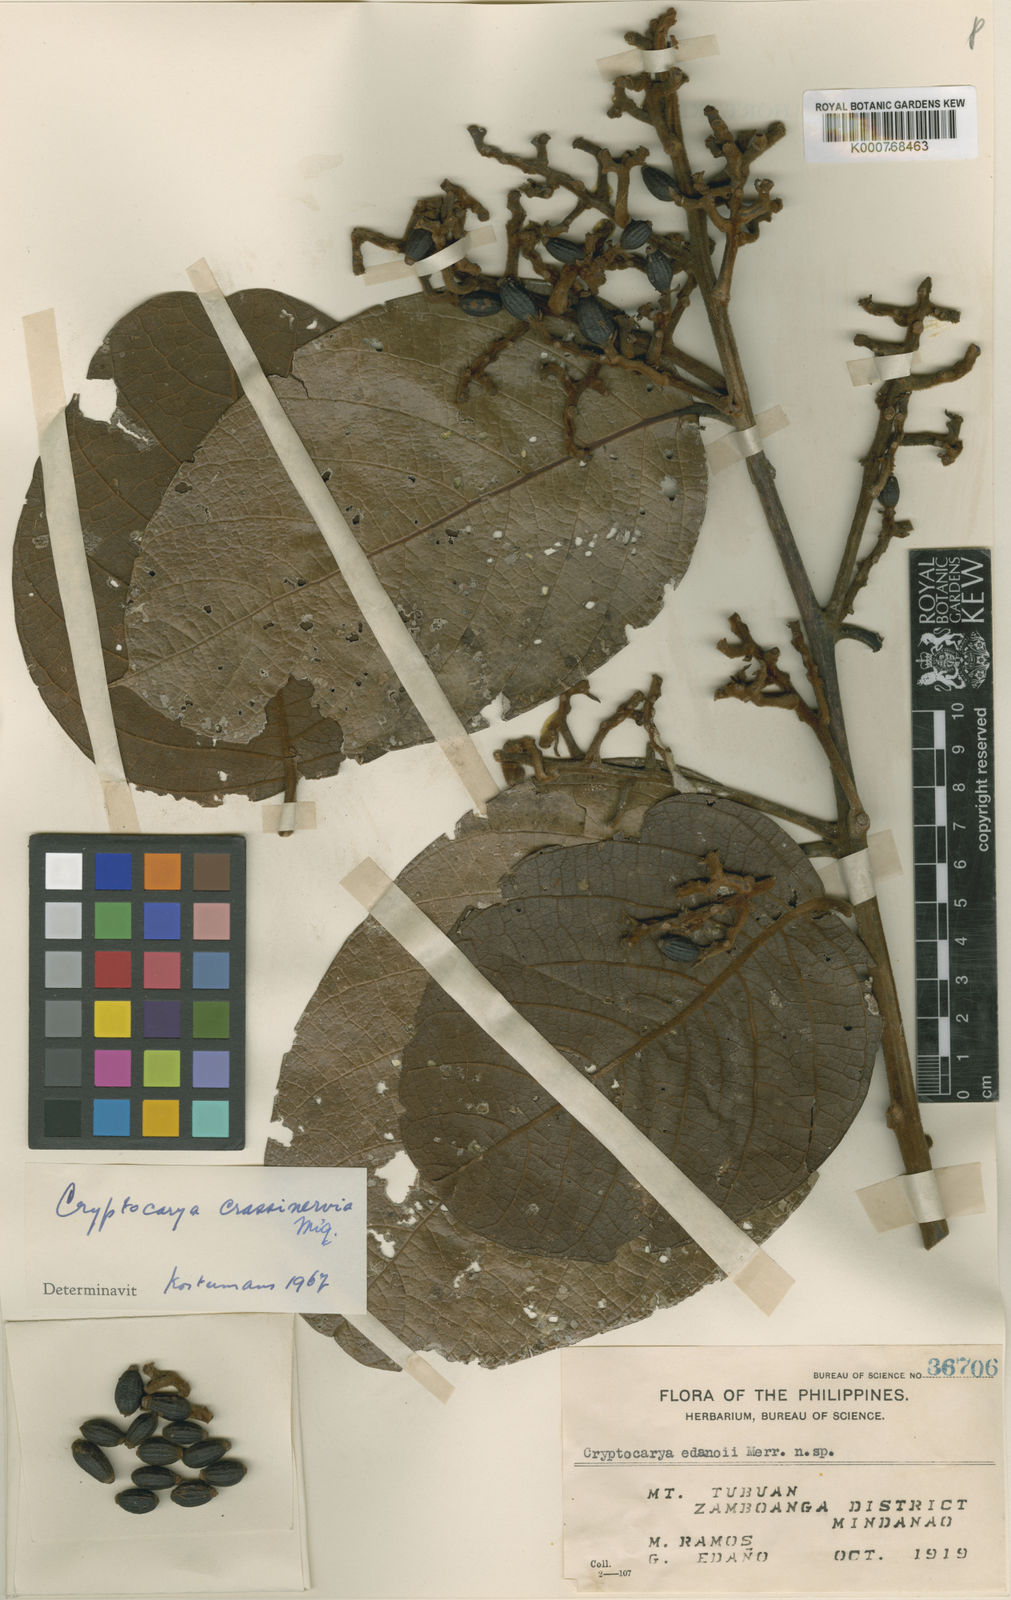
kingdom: Plantae
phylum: Tracheophyta
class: Magnoliopsida
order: Laurales
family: Lauraceae
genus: Cryptocarya
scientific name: Cryptocarya diversifolia
